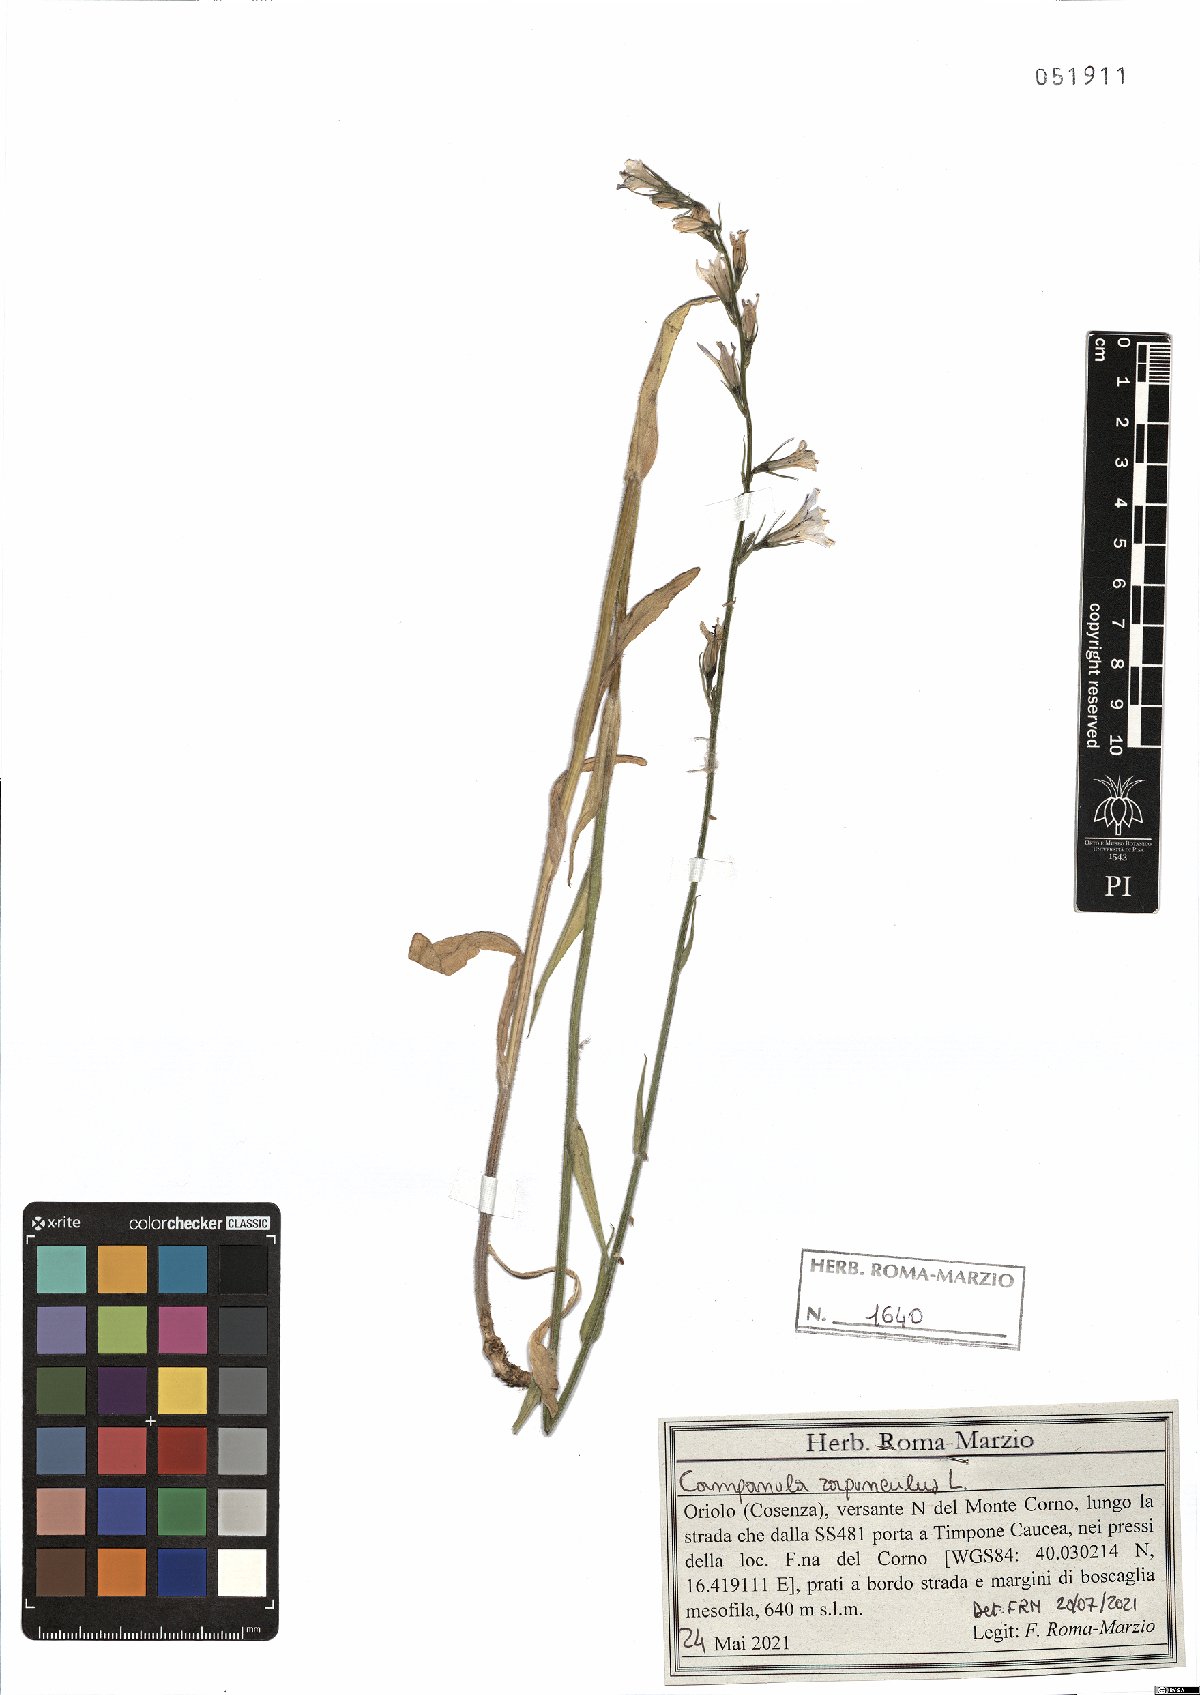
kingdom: Plantae
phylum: Tracheophyta
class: Magnoliopsida
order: Asterales
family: Campanulaceae
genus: Campanula
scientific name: Campanula rapunculus
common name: Rampion bellflower
